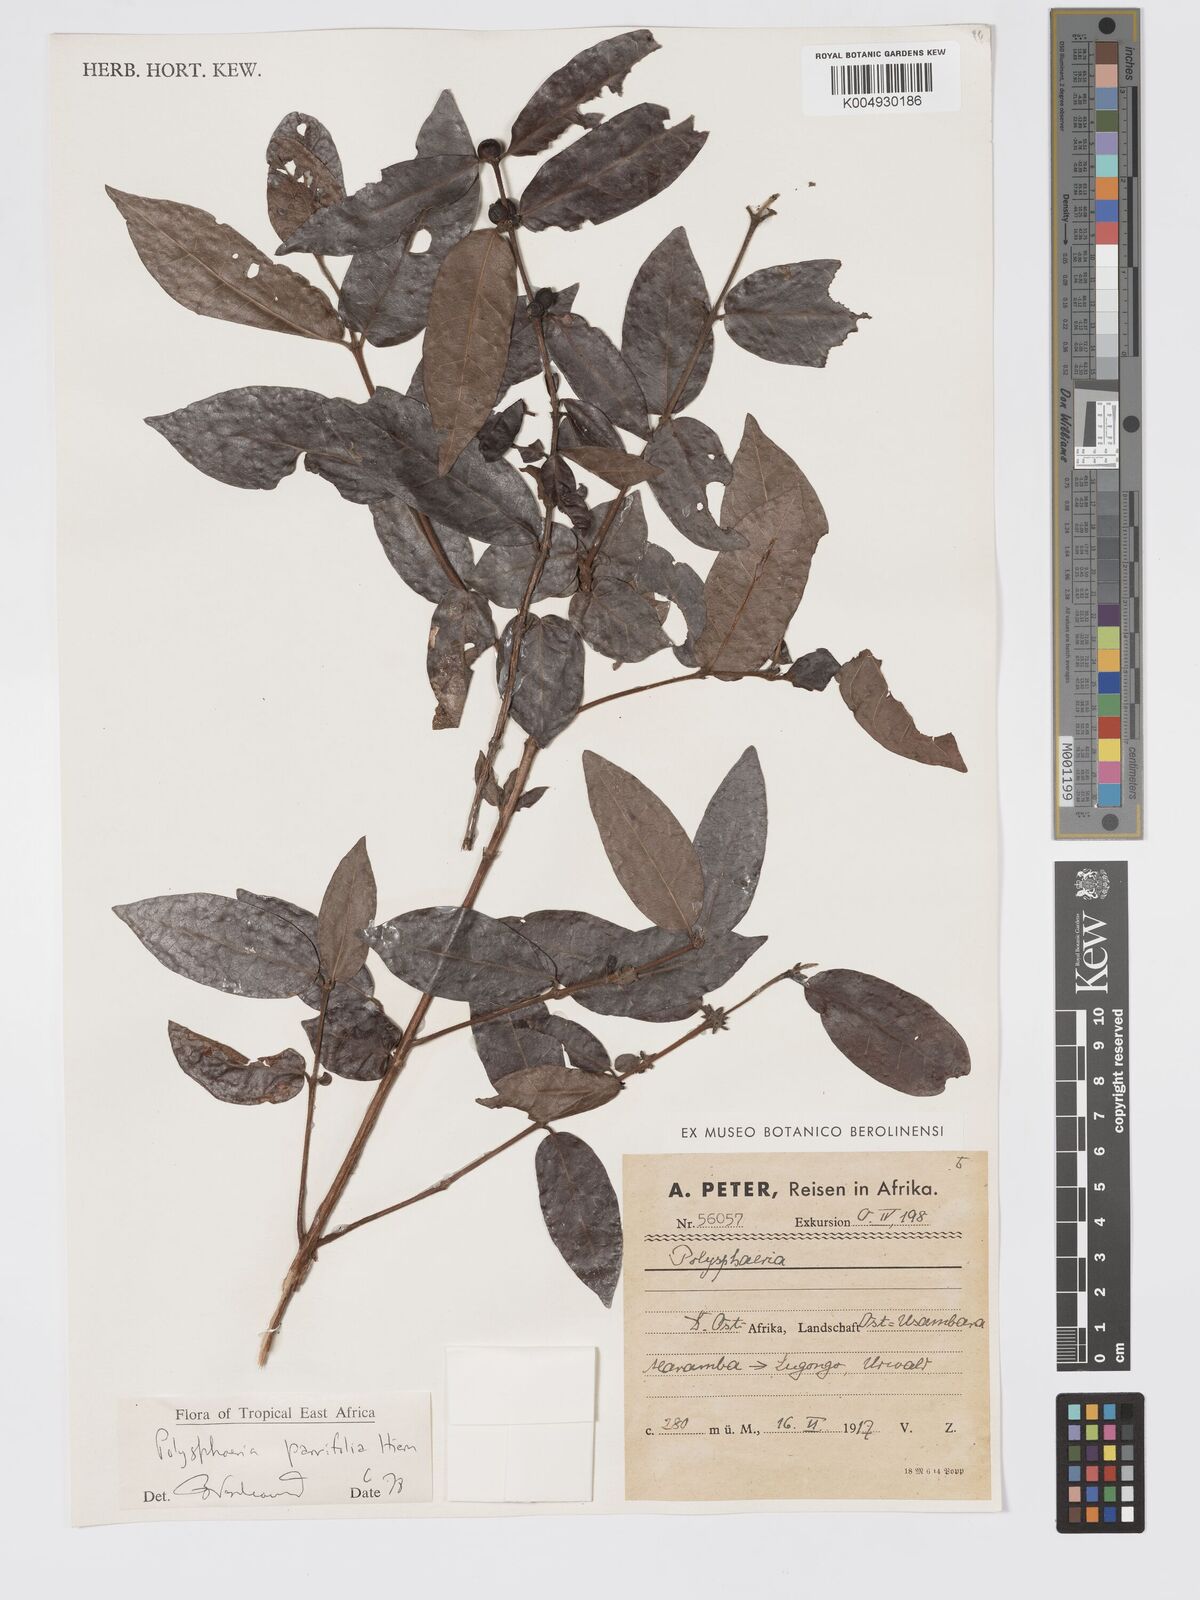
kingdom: Plantae
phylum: Tracheophyta
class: Magnoliopsida
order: Gentianales
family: Rubiaceae
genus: Polysphaeria
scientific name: Polysphaeria parvifolia
